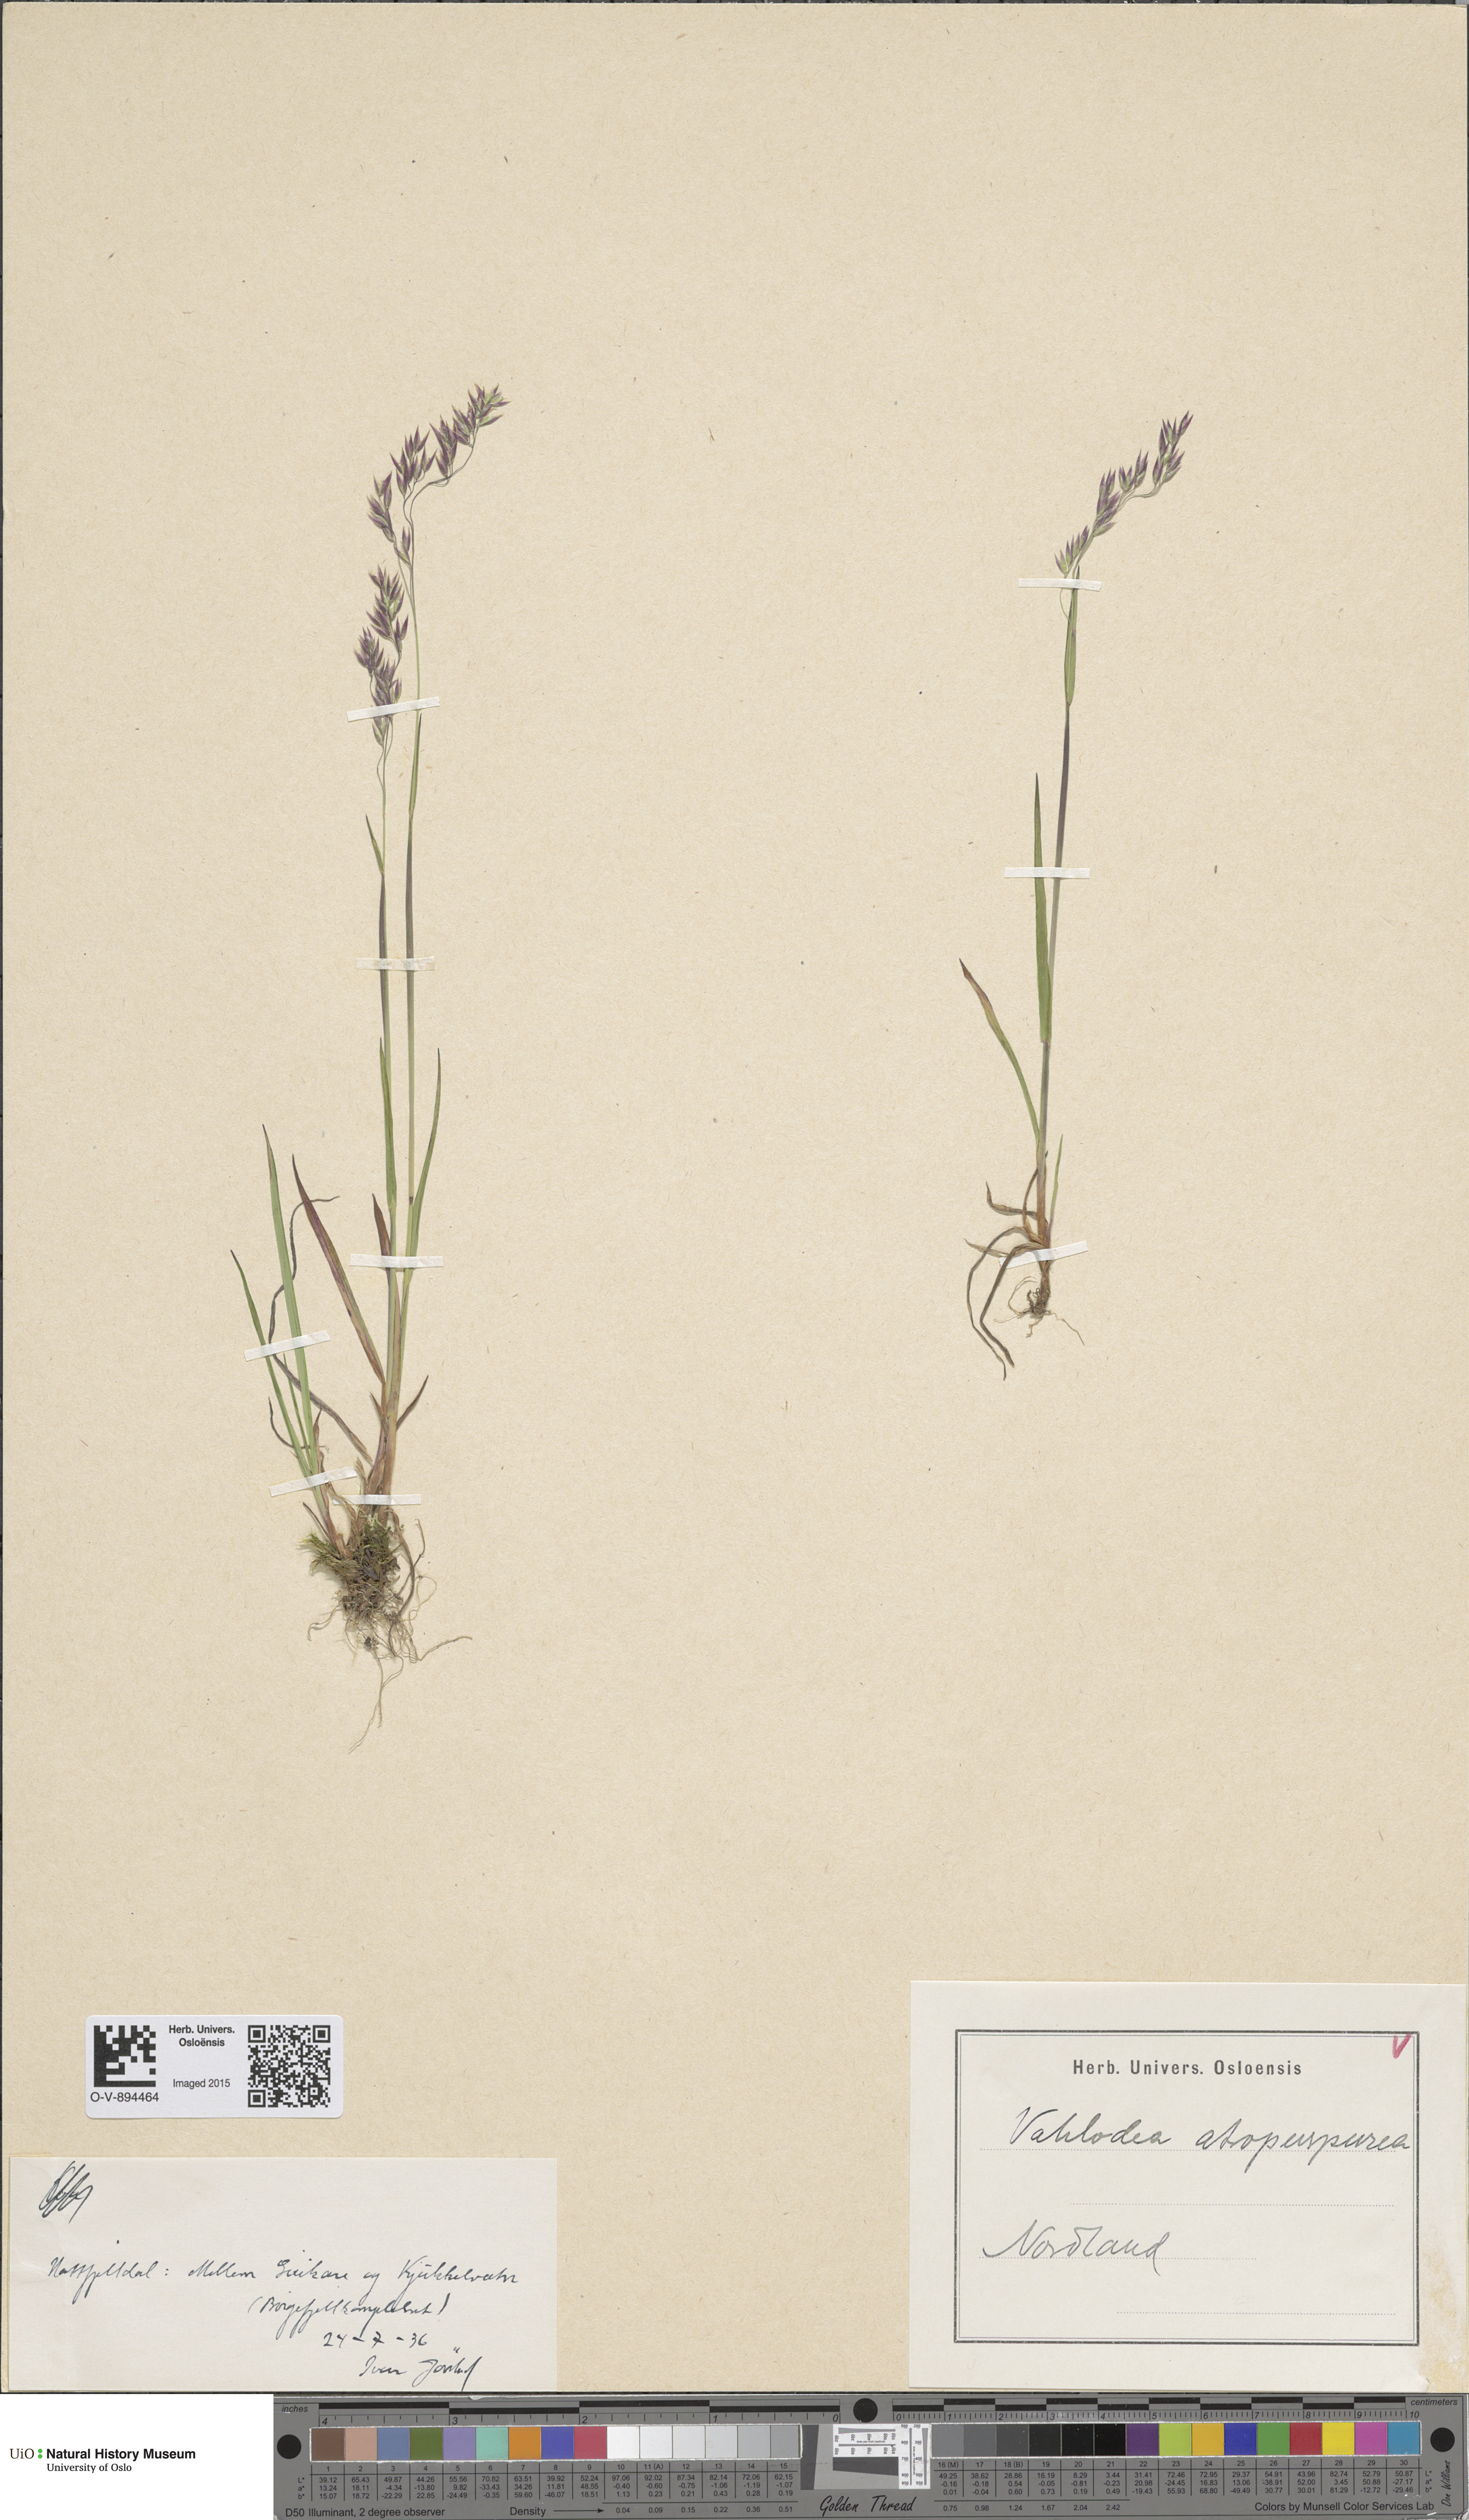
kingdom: Plantae
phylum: Tracheophyta
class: Liliopsida
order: Poales
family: Poaceae
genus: Vahlodea
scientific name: Vahlodea atropurpurea
